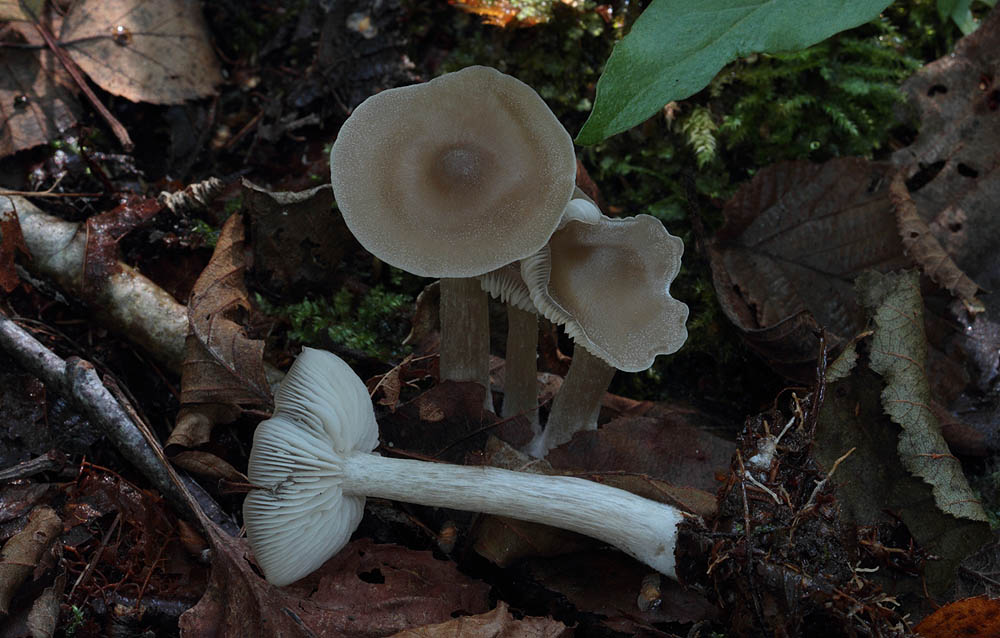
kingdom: Fungi
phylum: Basidiomycota
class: Agaricomycetes
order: Agaricales
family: Entolomataceae
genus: Entoloma
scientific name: Entoloma sericatum
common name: rank rødblad
